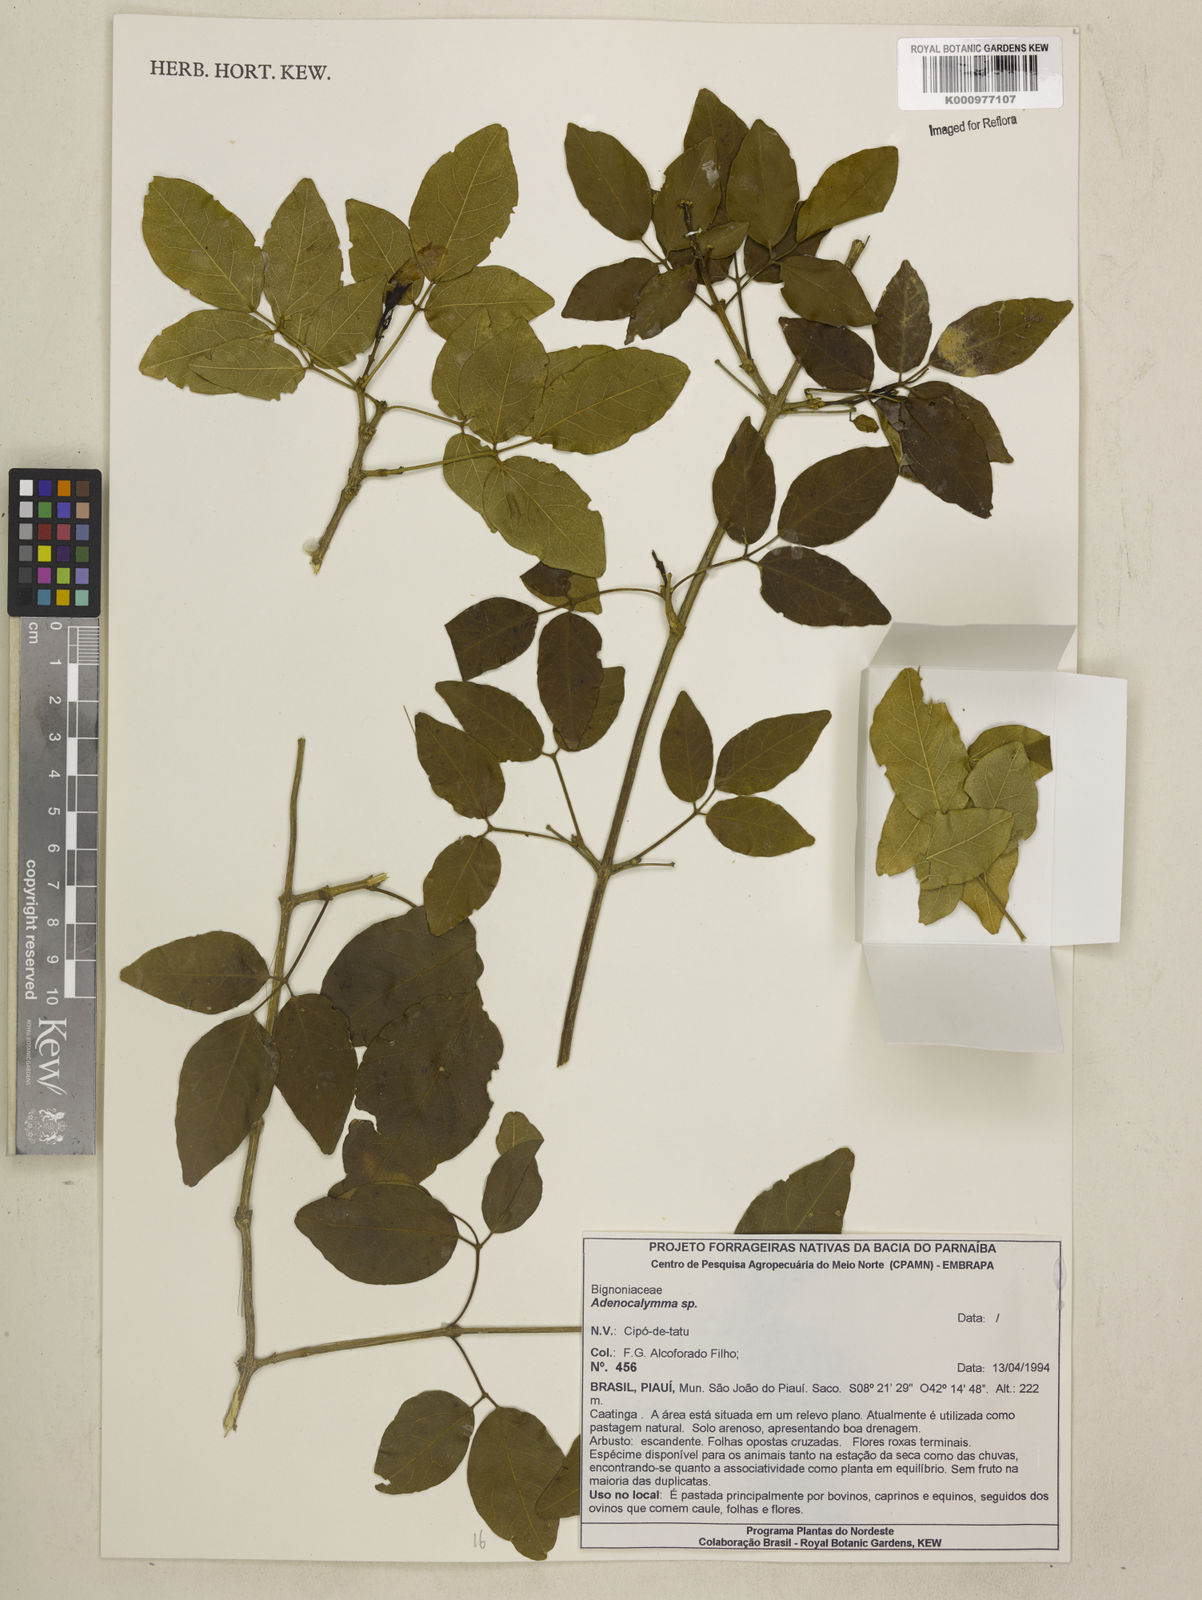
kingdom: Plantae
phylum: Tracheophyta
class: Magnoliopsida
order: Lamiales
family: Bignoniaceae
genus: Adenocalymma
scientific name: Adenocalymma
